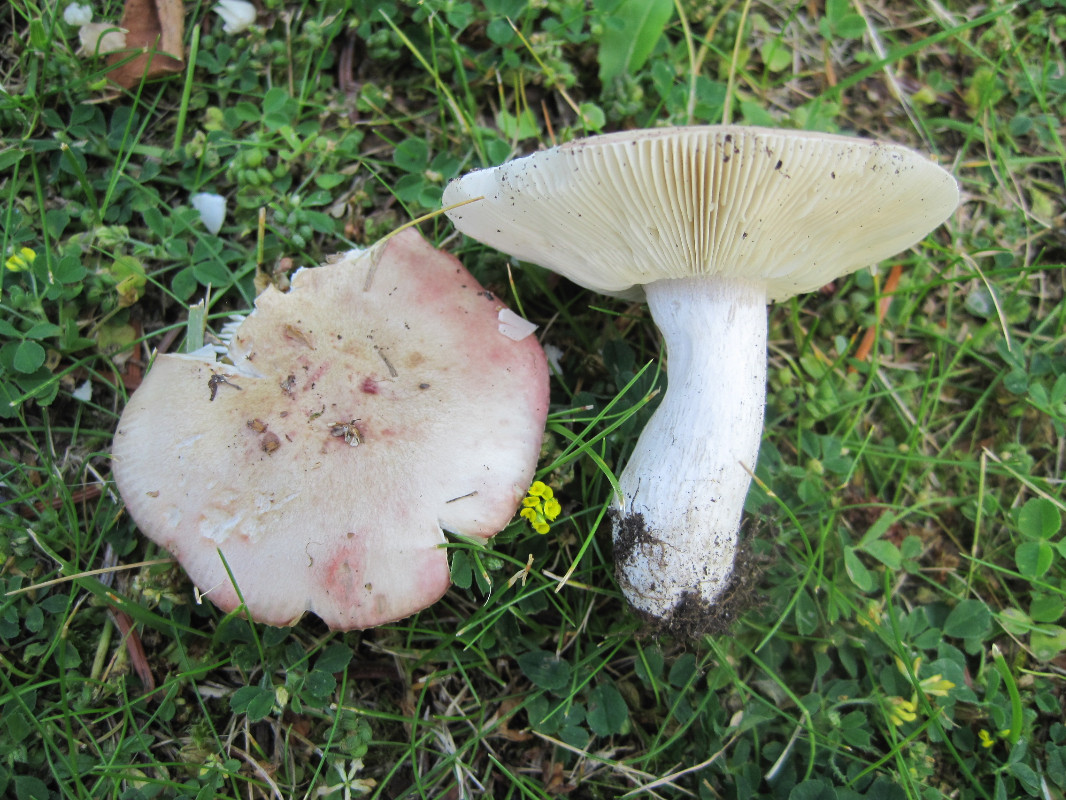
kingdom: Fungi
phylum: Basidiomycota
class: Agaricomycetes
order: Russulales
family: Russulaceae
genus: Russula
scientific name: Russula depallens
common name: falmende skørhat
